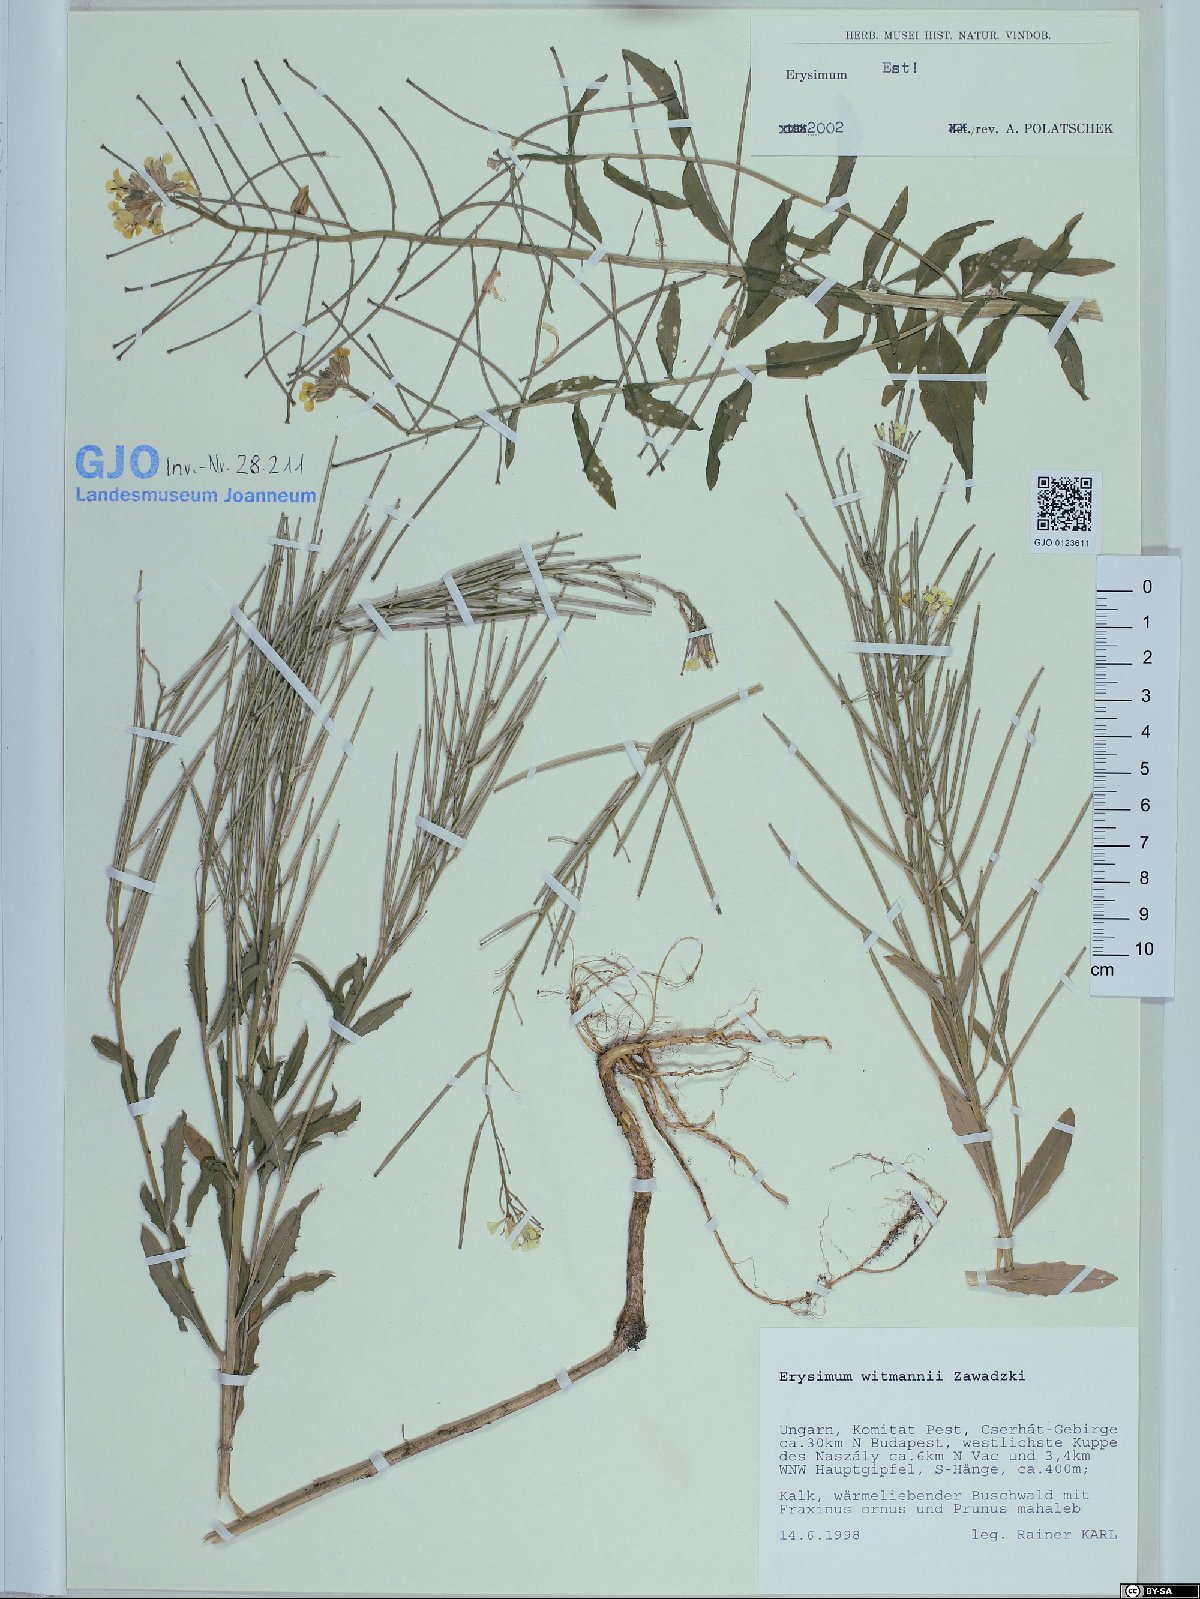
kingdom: Plantae
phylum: Tracheophyta
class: Magnoliopsida
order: Brassicales
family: Brassicaceae
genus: Erysimum
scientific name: Erysimum witmannii
